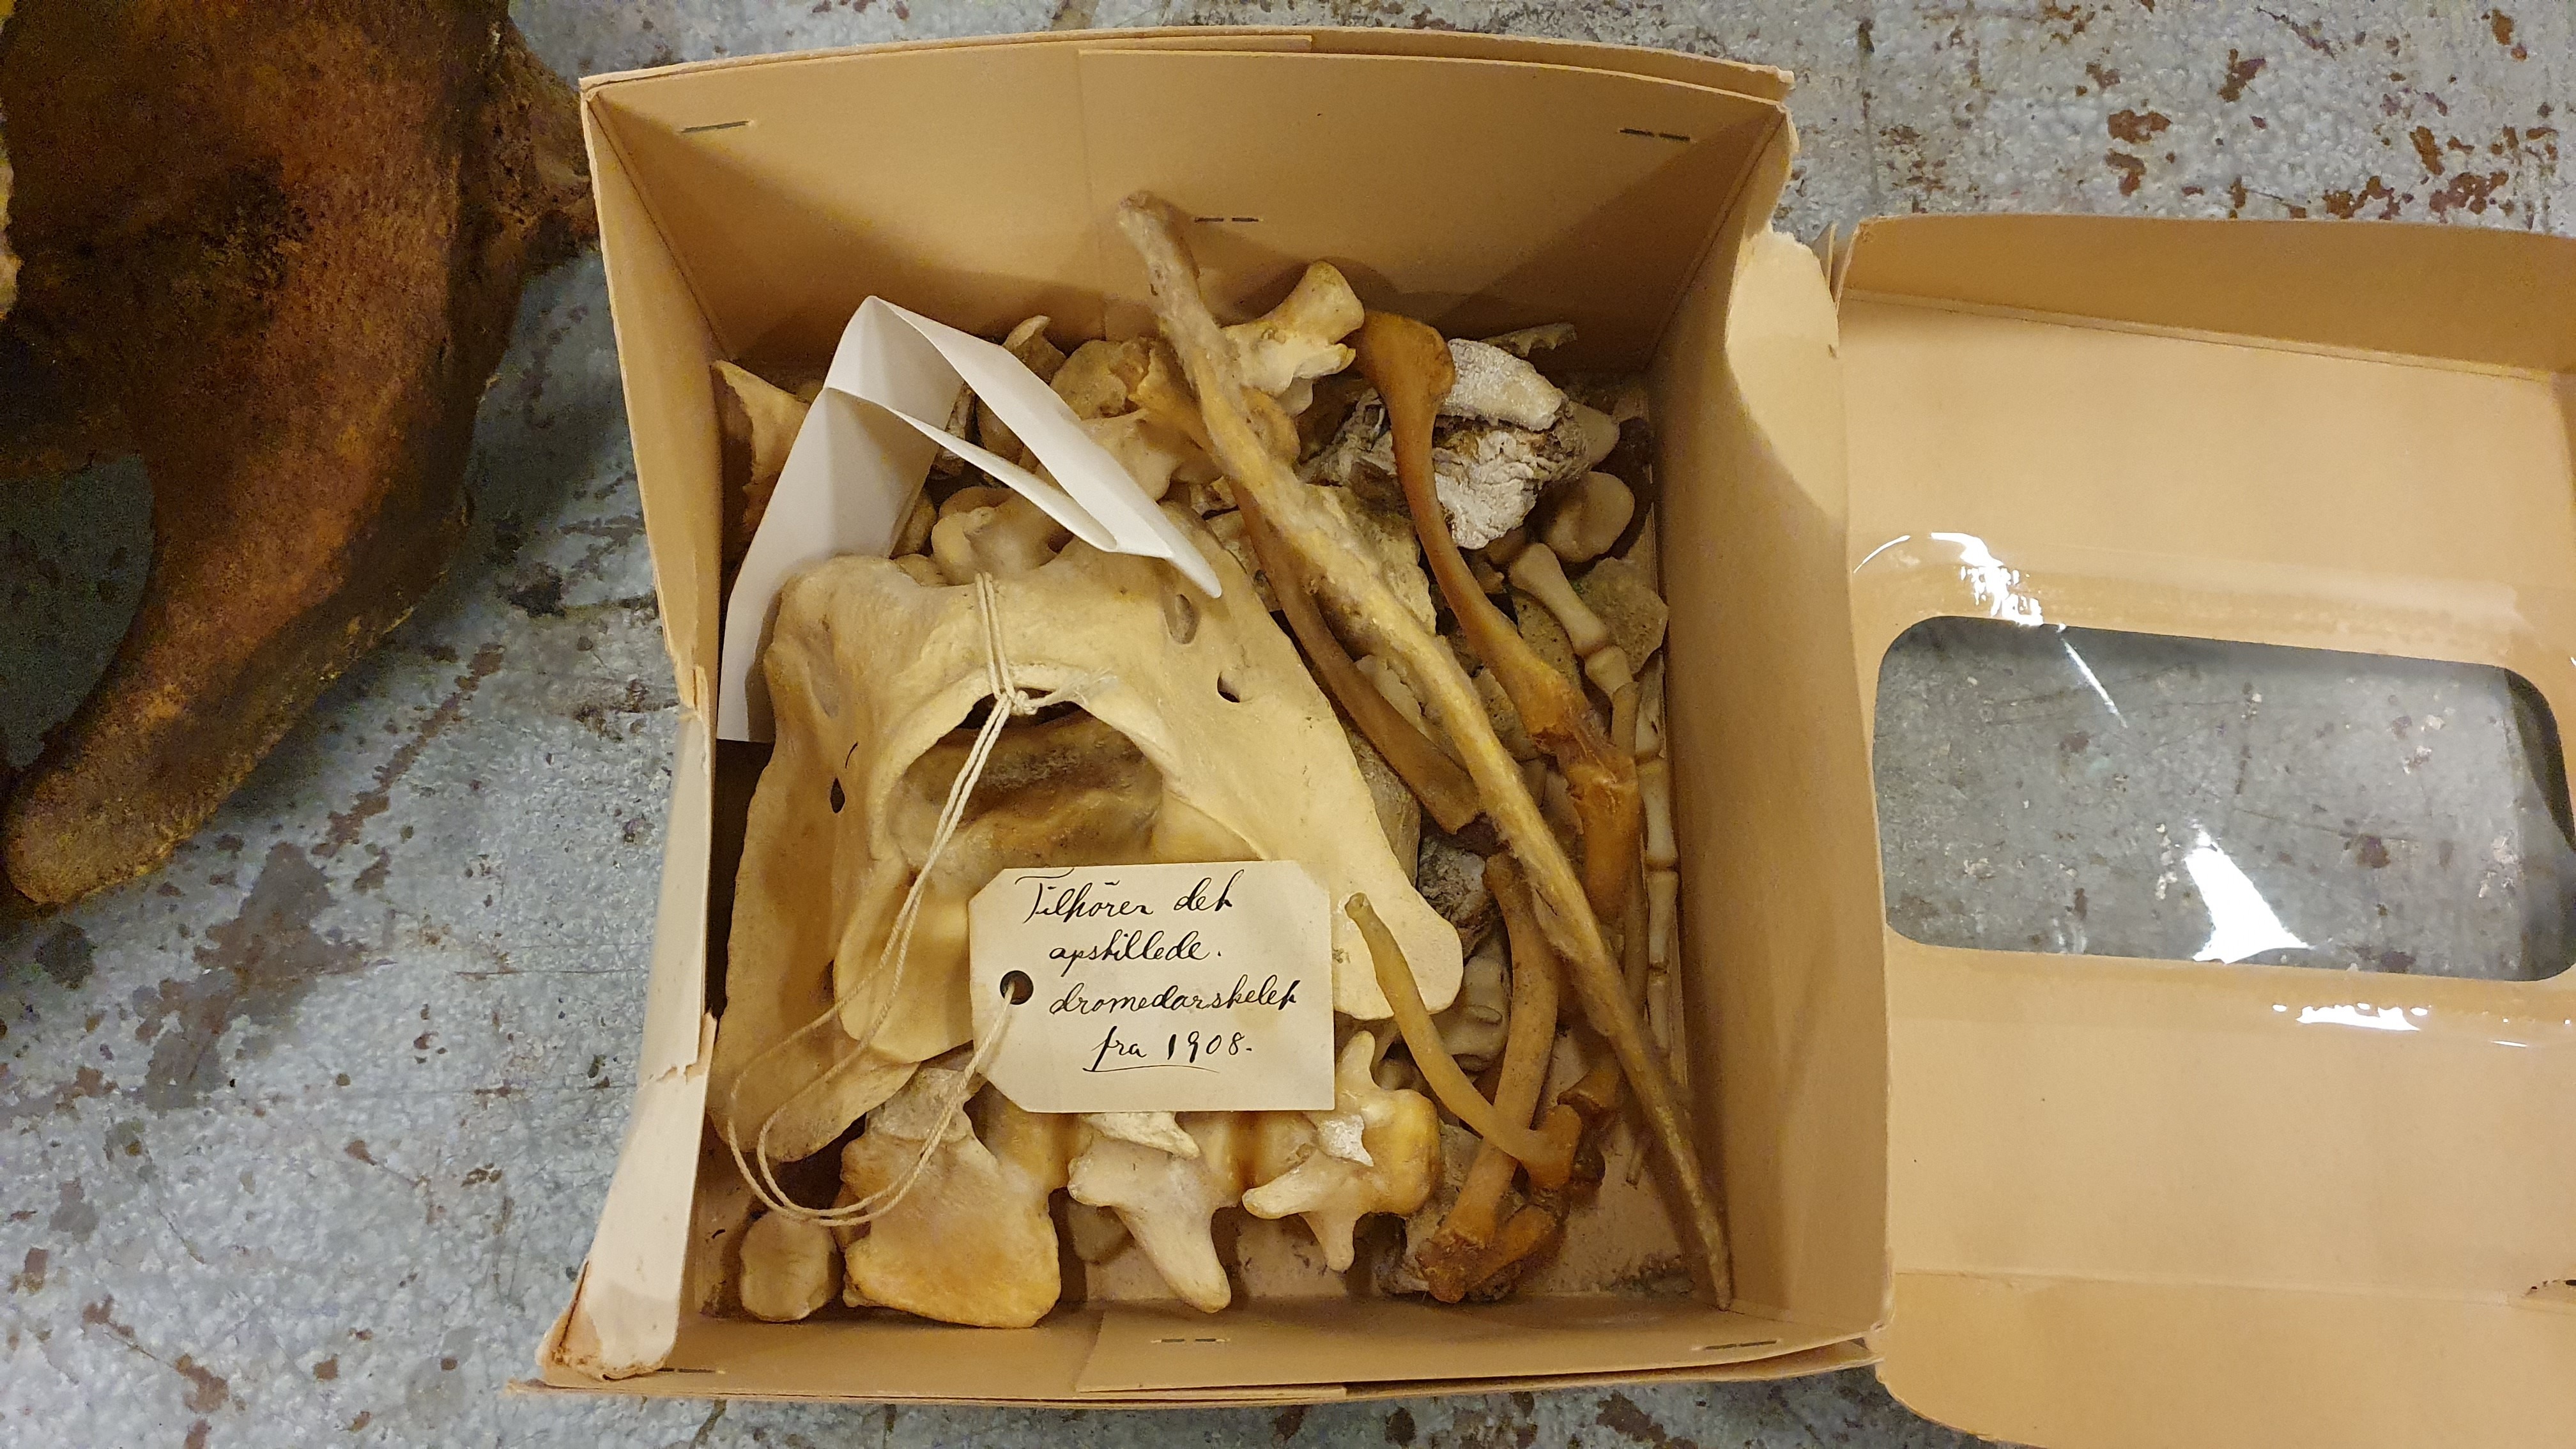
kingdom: Animalia
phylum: Chordata
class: Mammalia
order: Artiodactyla
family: Camelidae
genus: Camelus
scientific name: Camelus dromedarius
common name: One-humped camel
